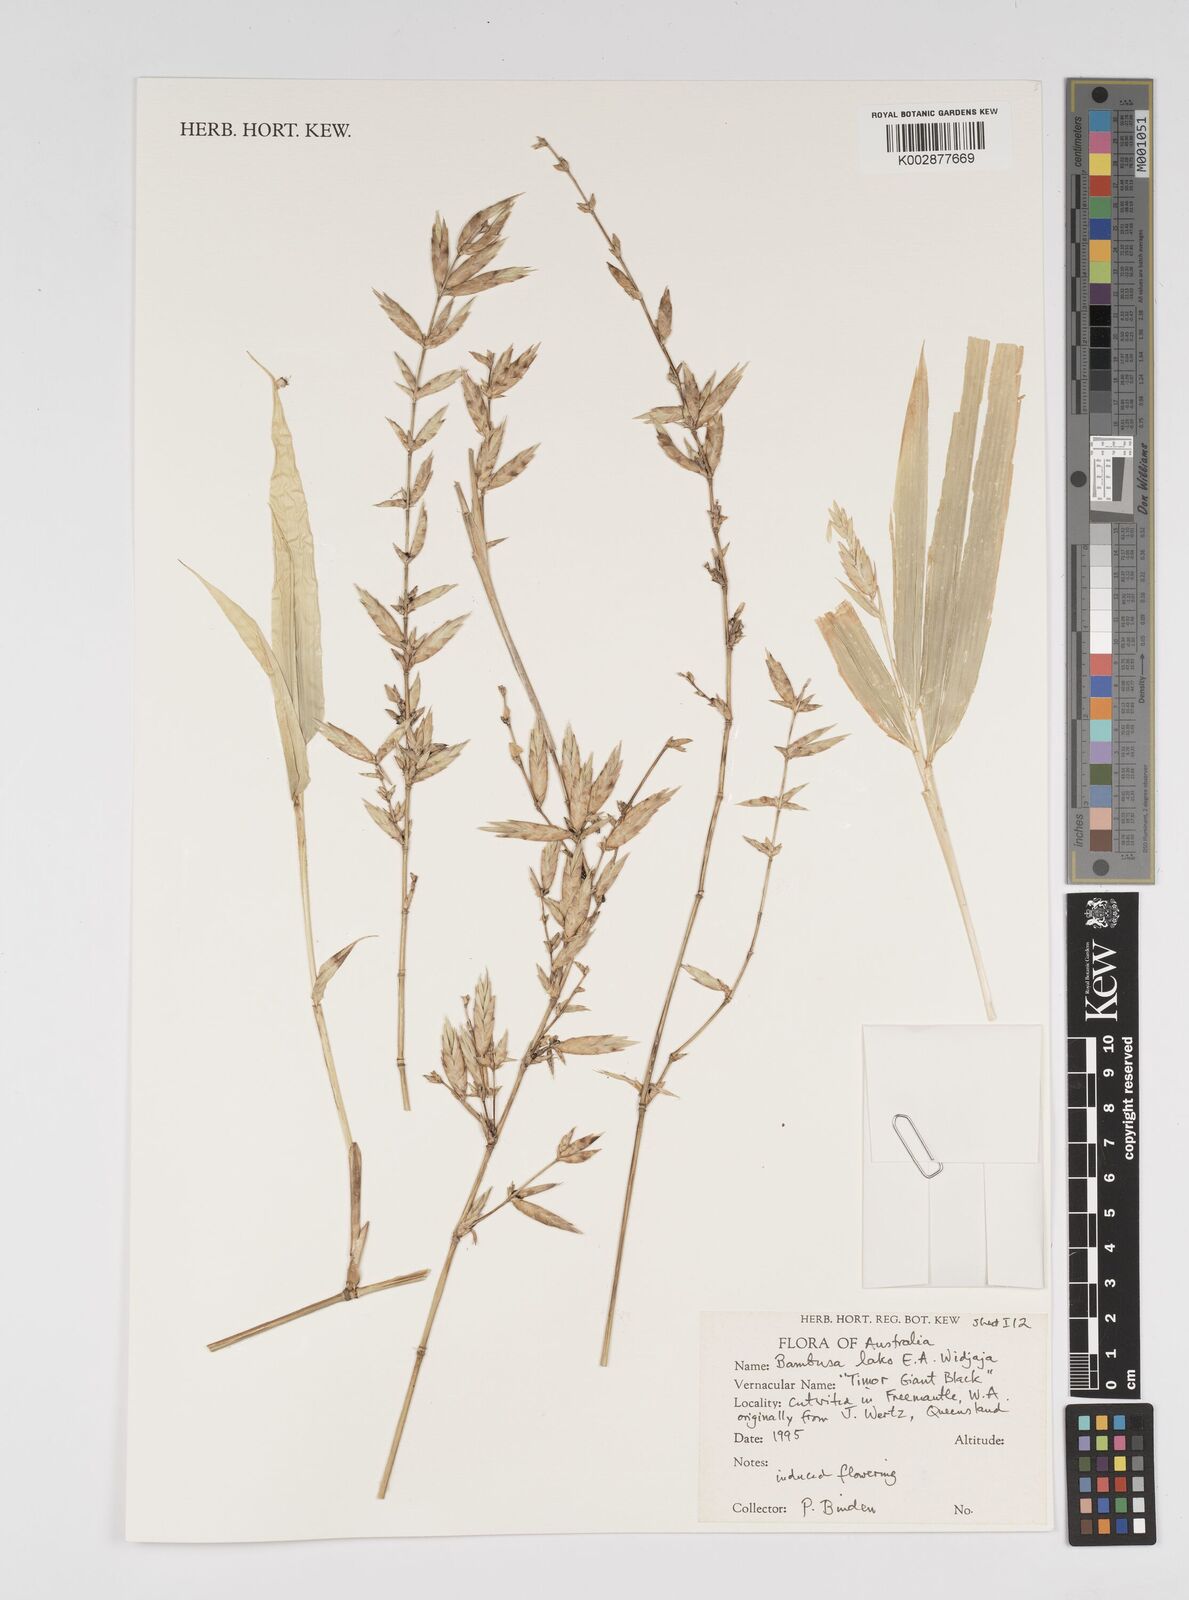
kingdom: Plantae
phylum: Tracheophyta
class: Liliopsida
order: Poales
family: Poaceae
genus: Bambusa
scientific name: Bambusa lako
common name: Timor black bamboo
